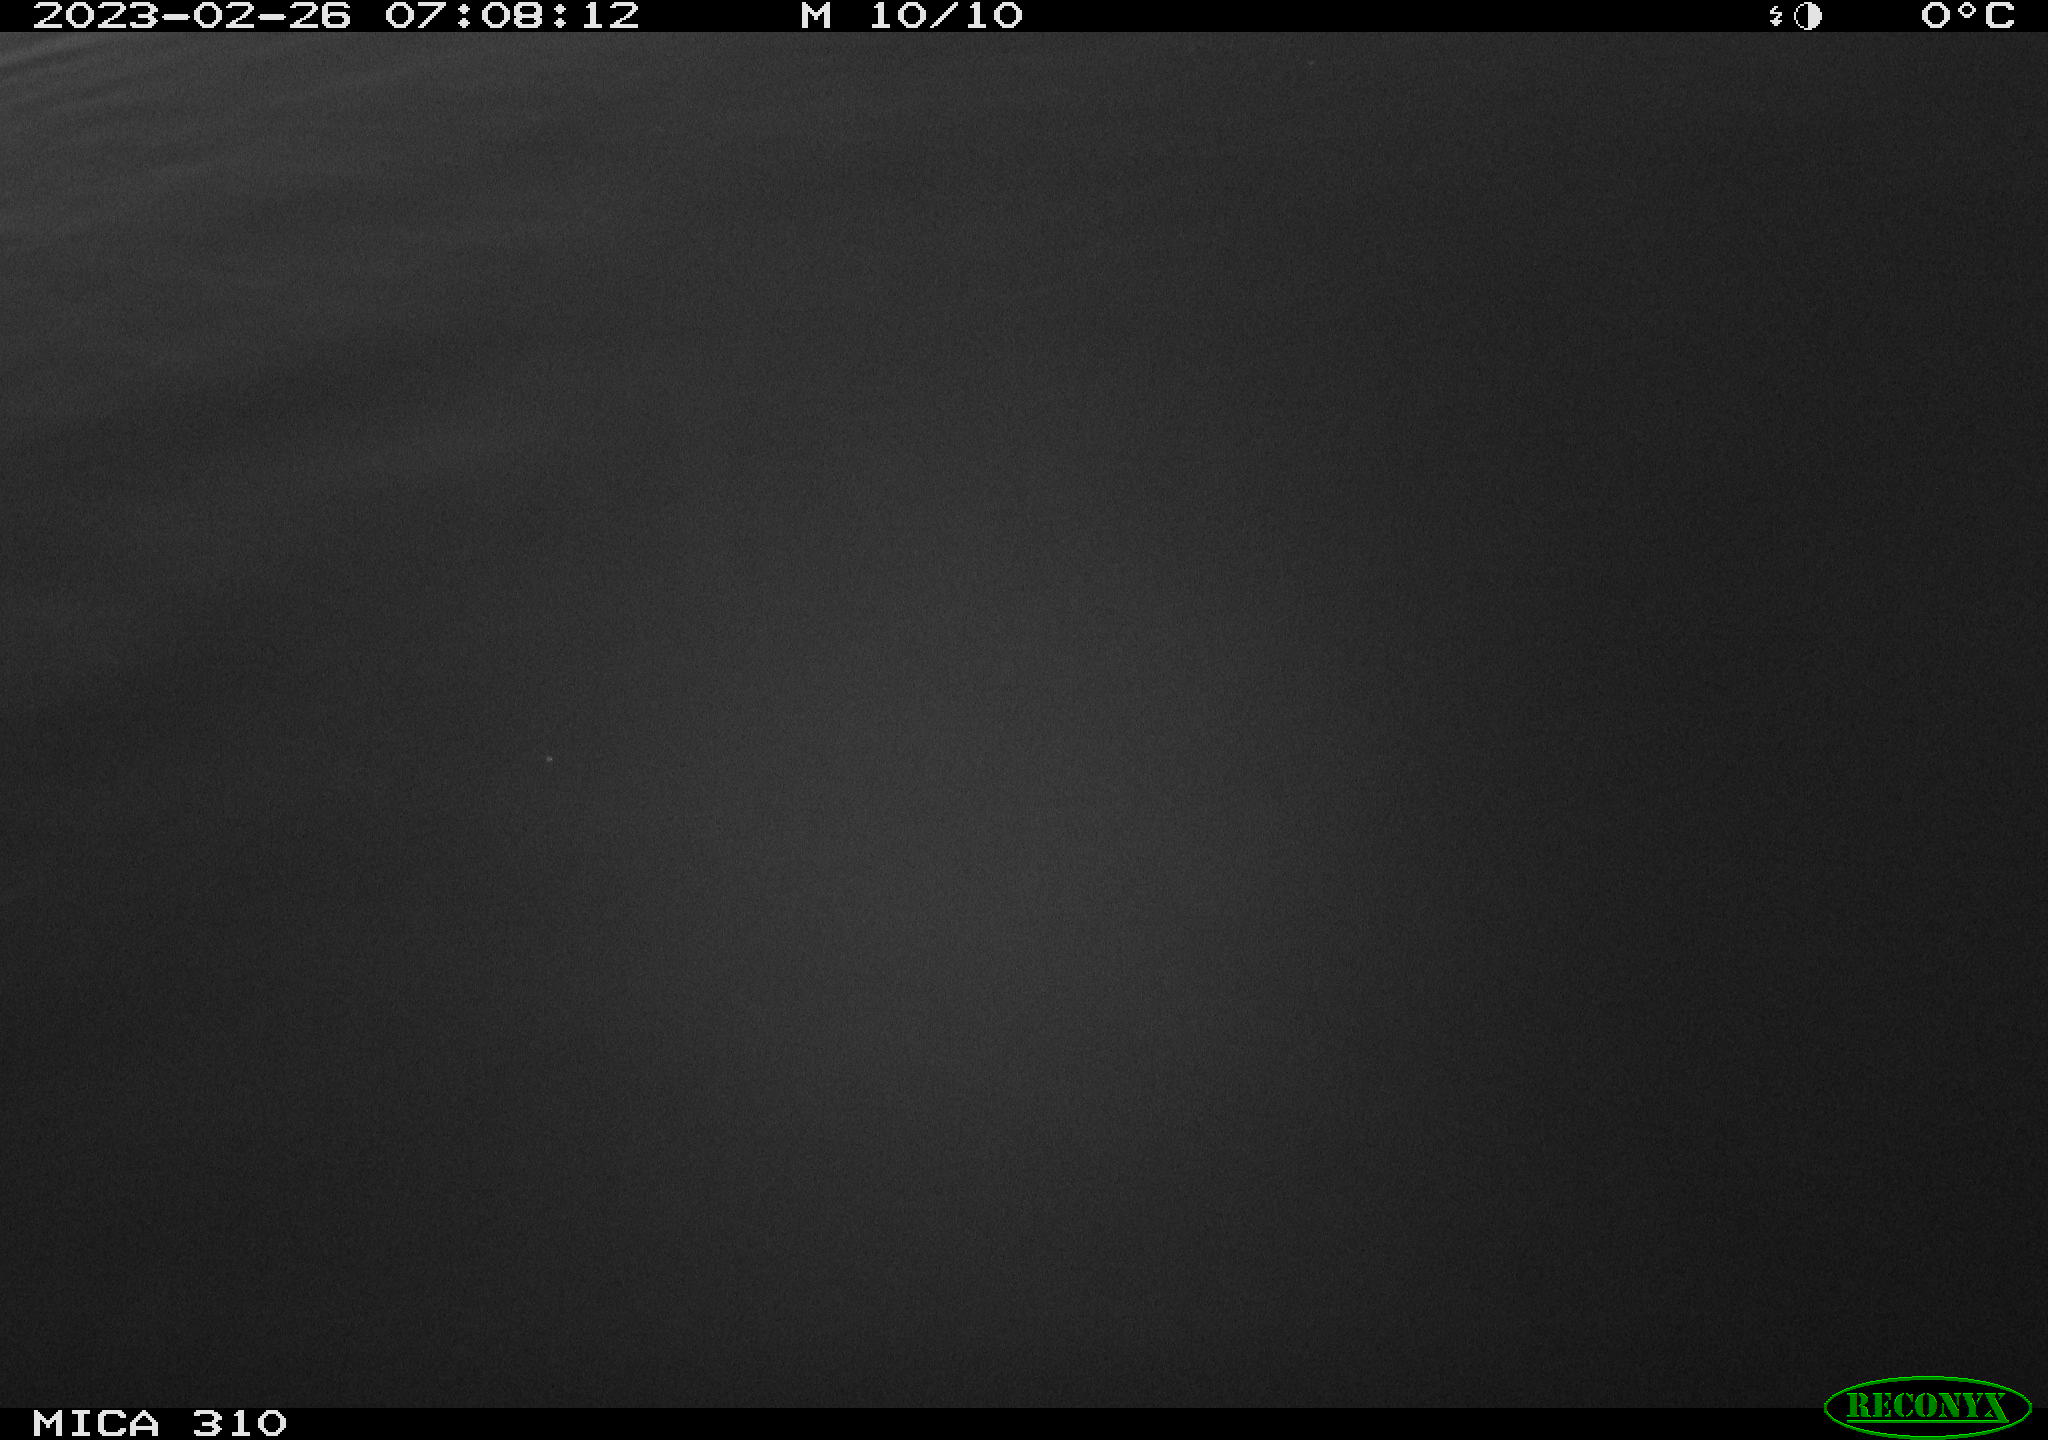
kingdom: Animalia
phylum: Chordata
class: Aves
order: Pelecaniformes
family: Ardeidae
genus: Ardea
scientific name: Ardea cinerea
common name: Grey heron
